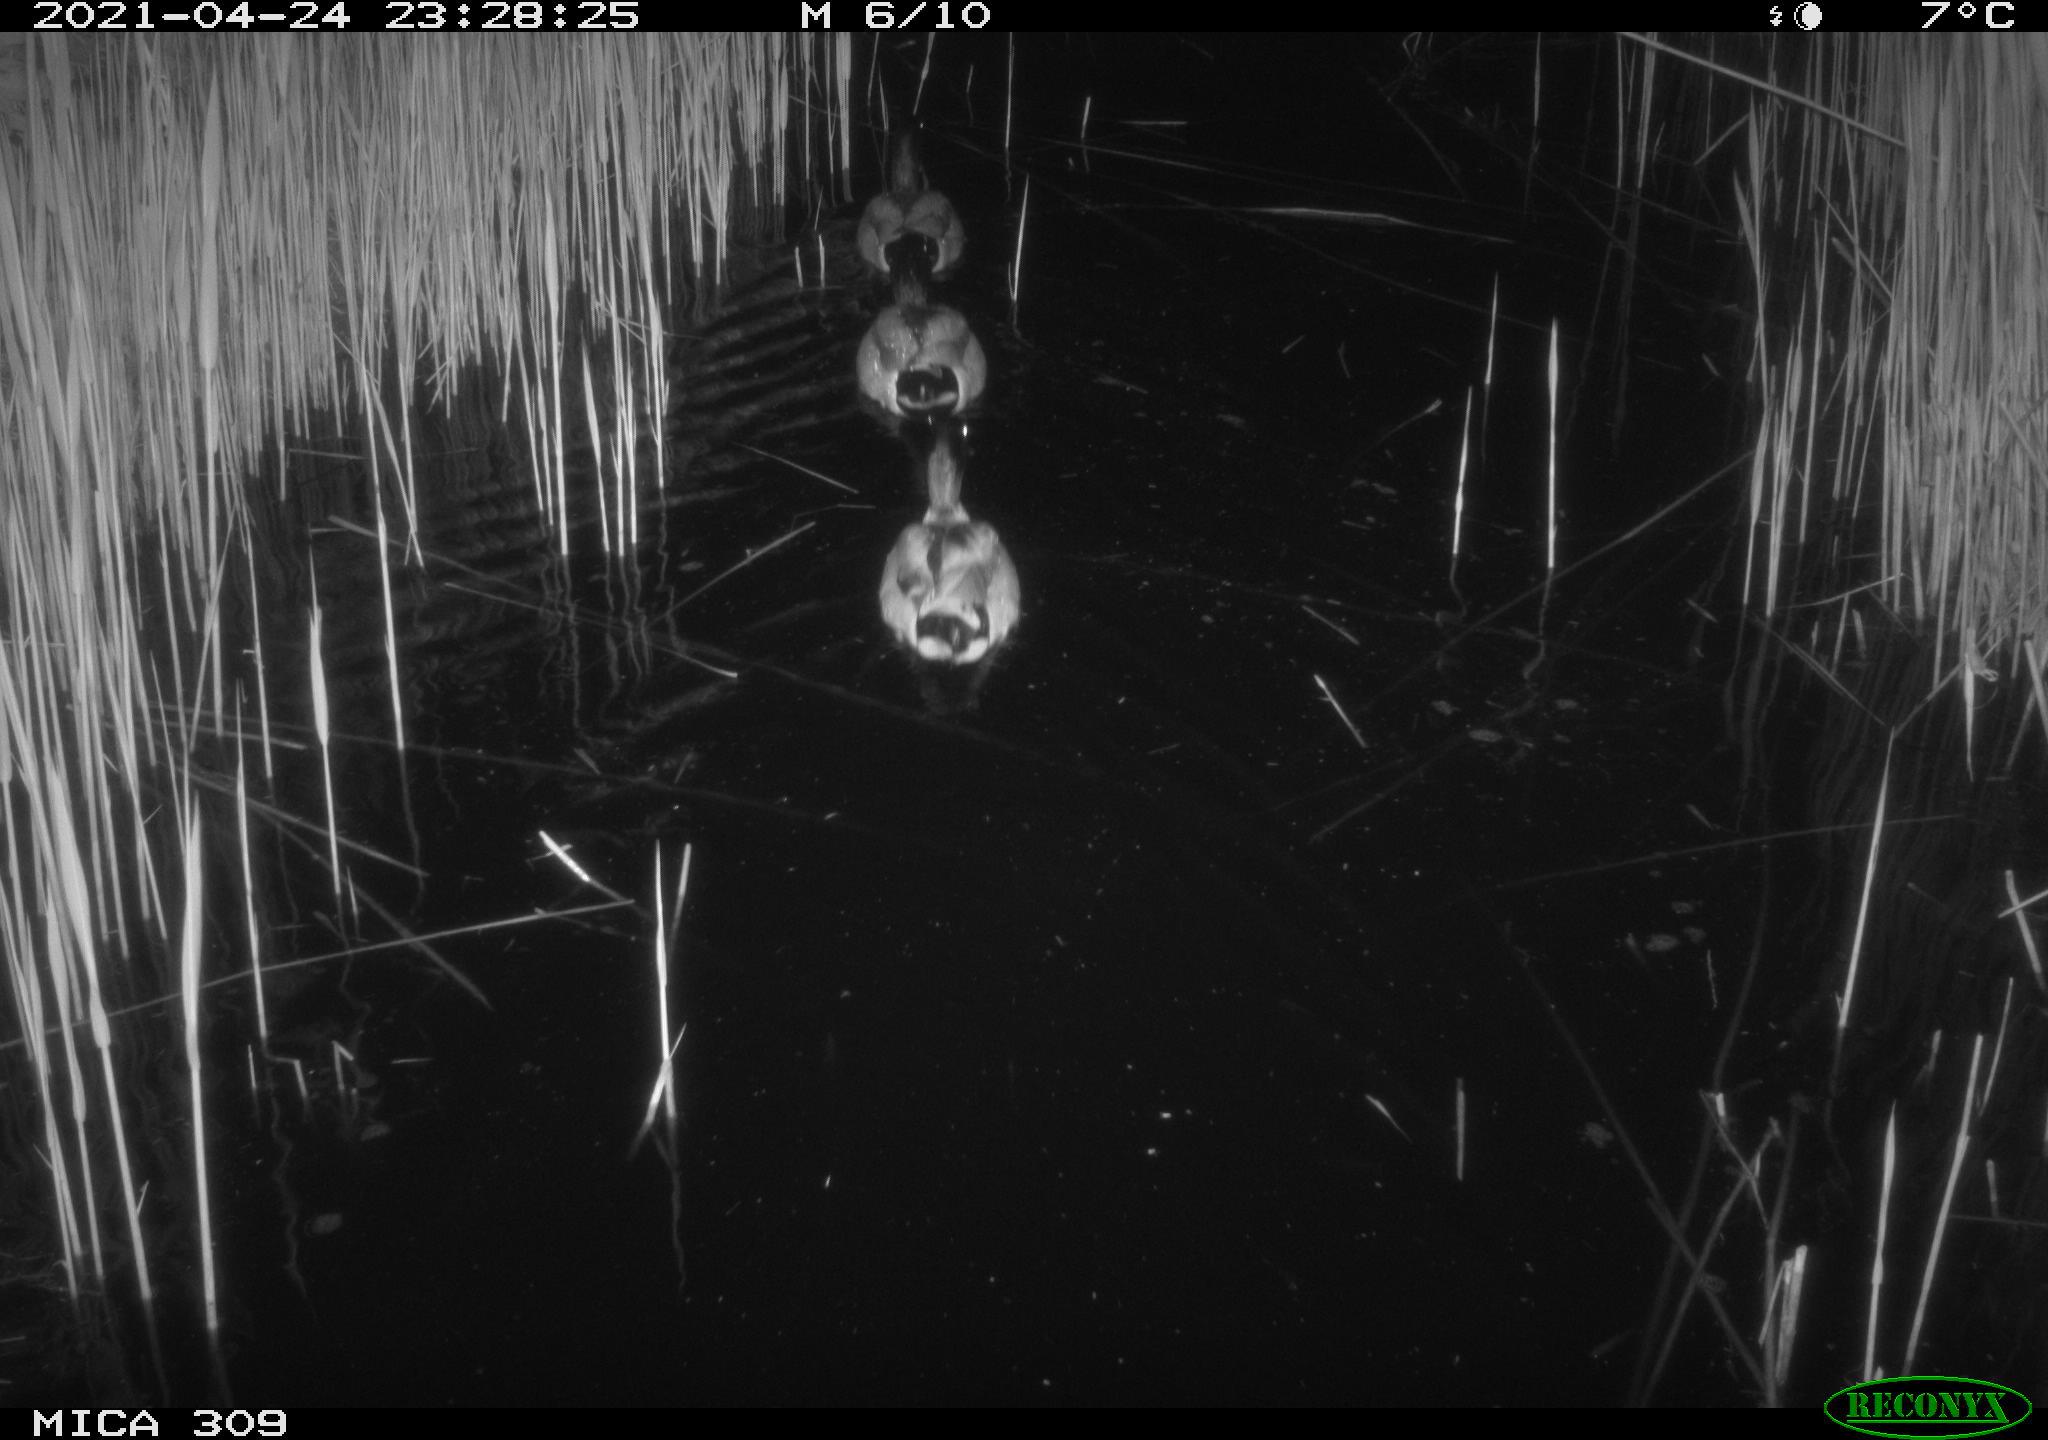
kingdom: Animalia
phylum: Chordata
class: Aves
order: Anseriformes
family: Anatidae
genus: Anas
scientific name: Anas platyrhynchos
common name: Mallard
